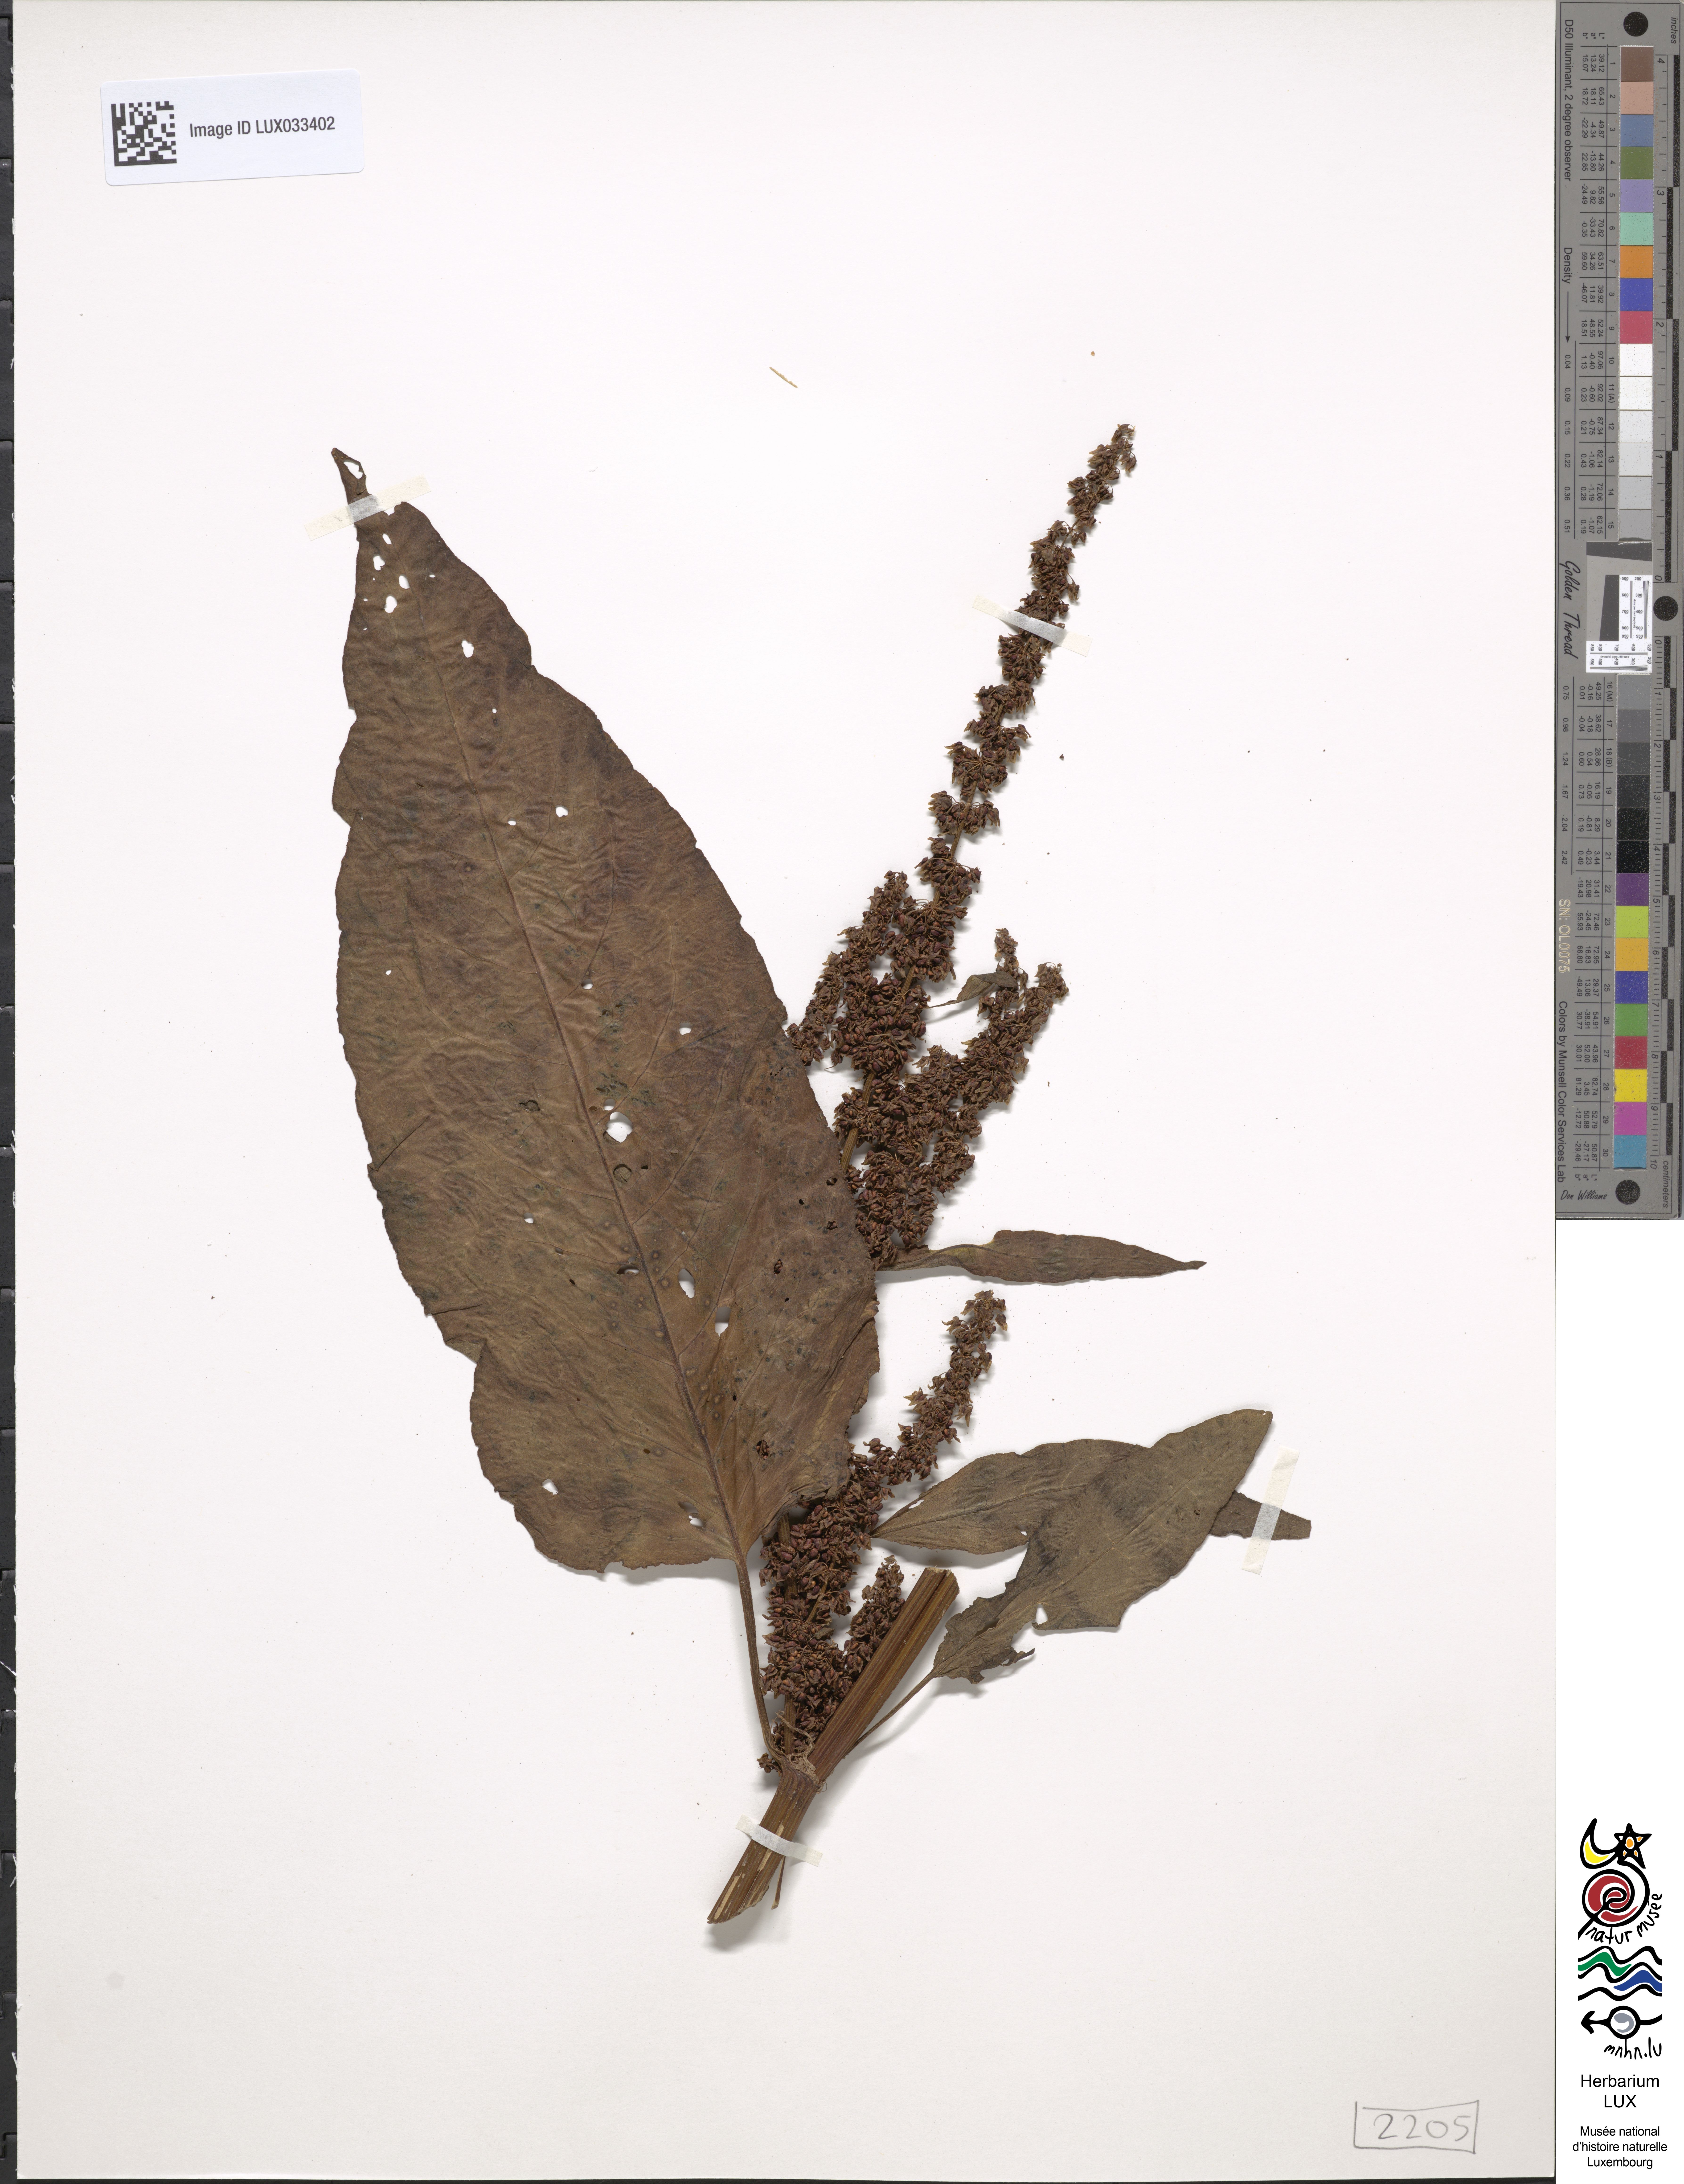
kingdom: Plantae
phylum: Tracheophyta
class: Magnoliopsida
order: Caryophyllales
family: Polygonaceae
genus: Rumex
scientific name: Rumex
